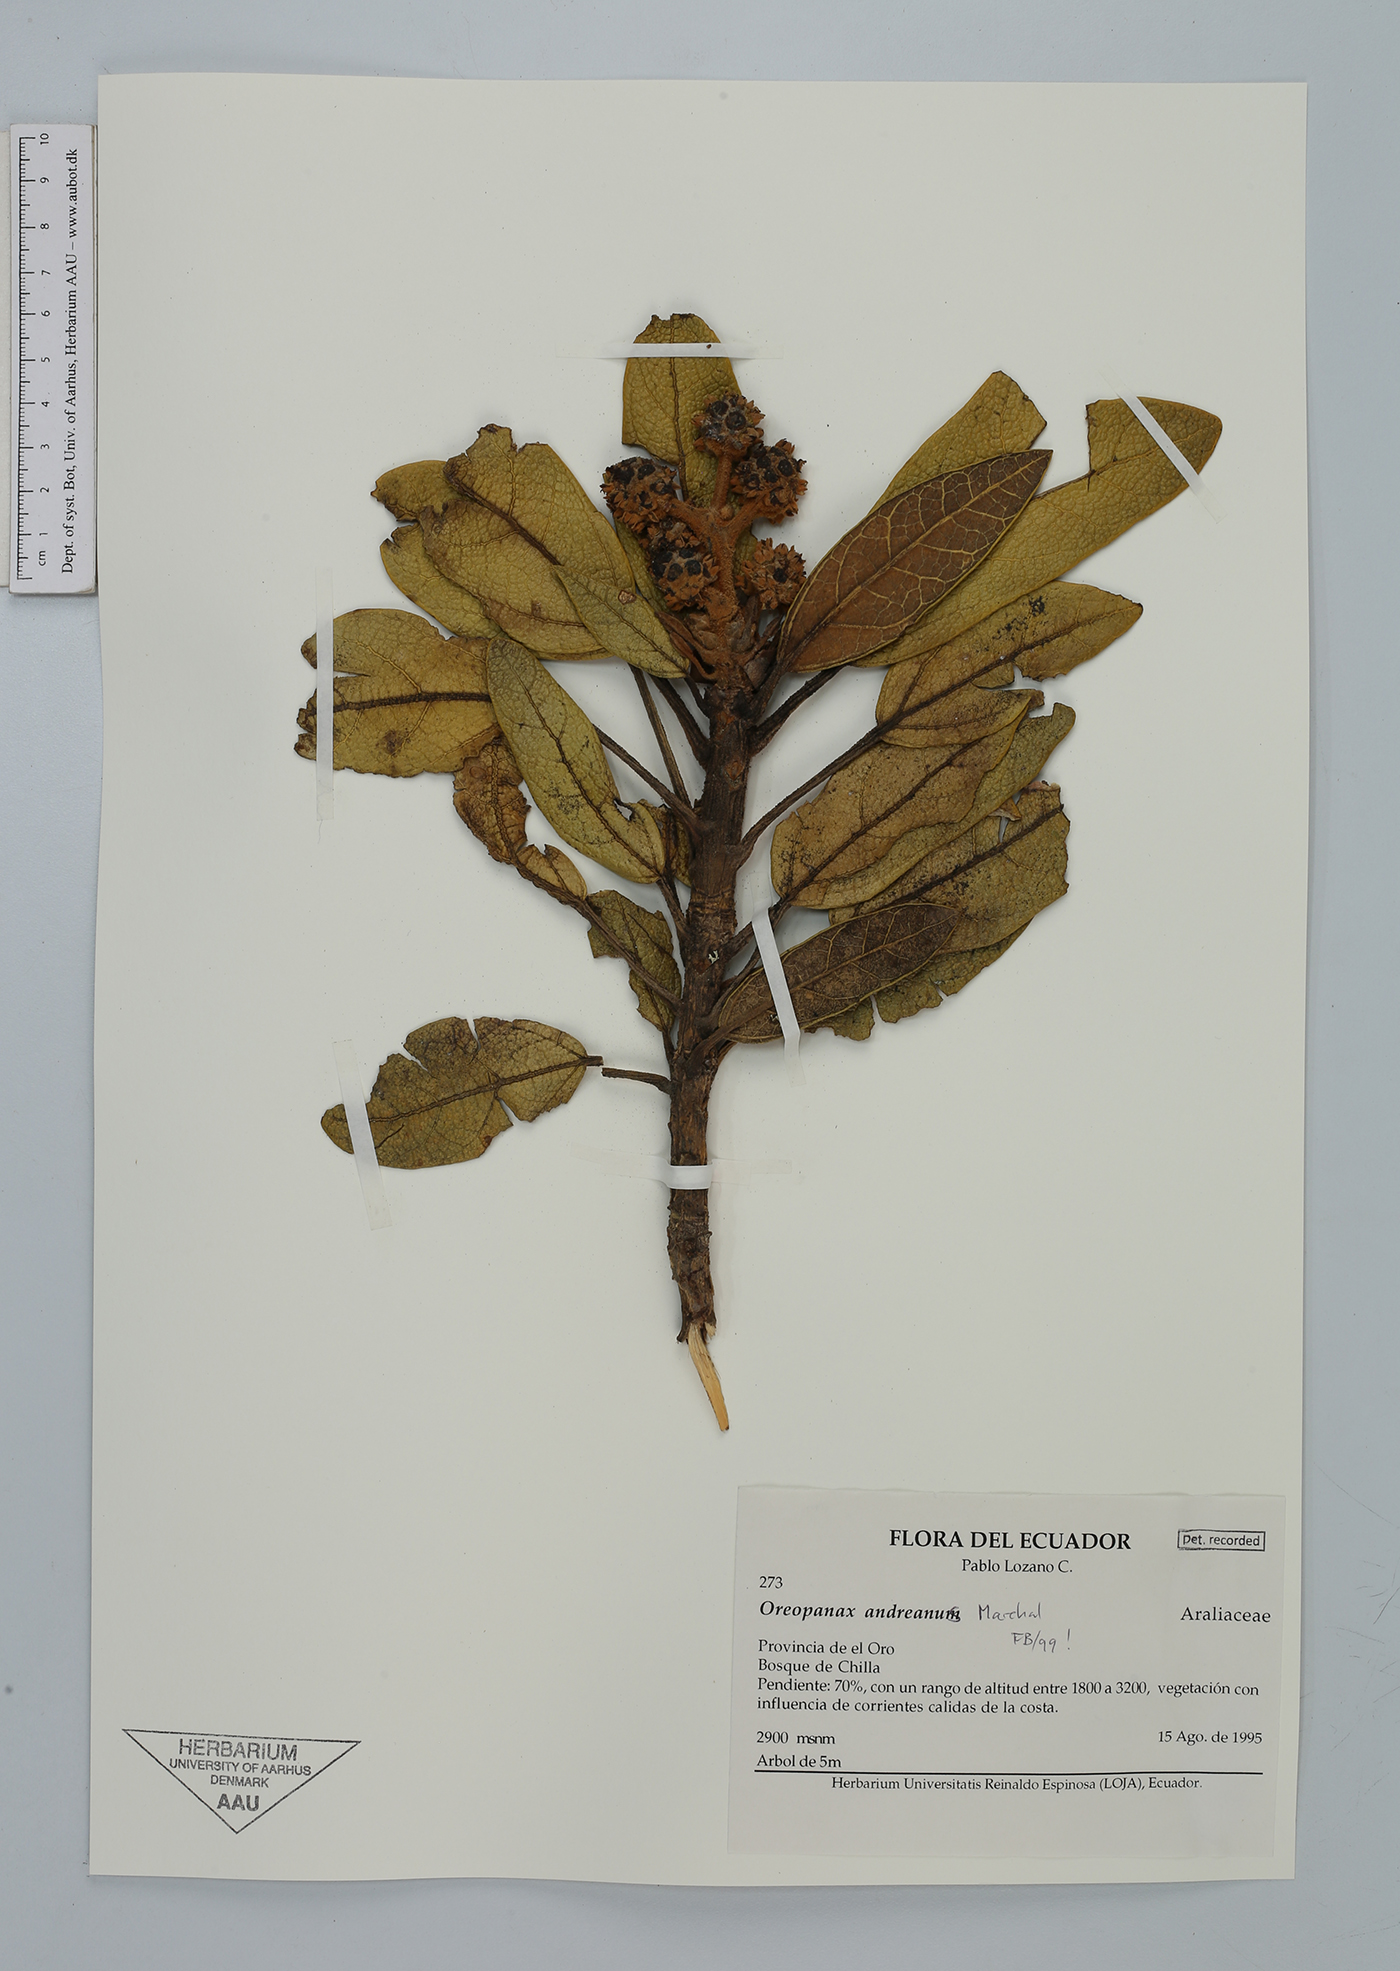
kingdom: Plantae
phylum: Tracheophyta
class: Magnoliopsida
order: Apiales
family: Araliaceae
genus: Oreopanax
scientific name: Oreopanax andreanus
